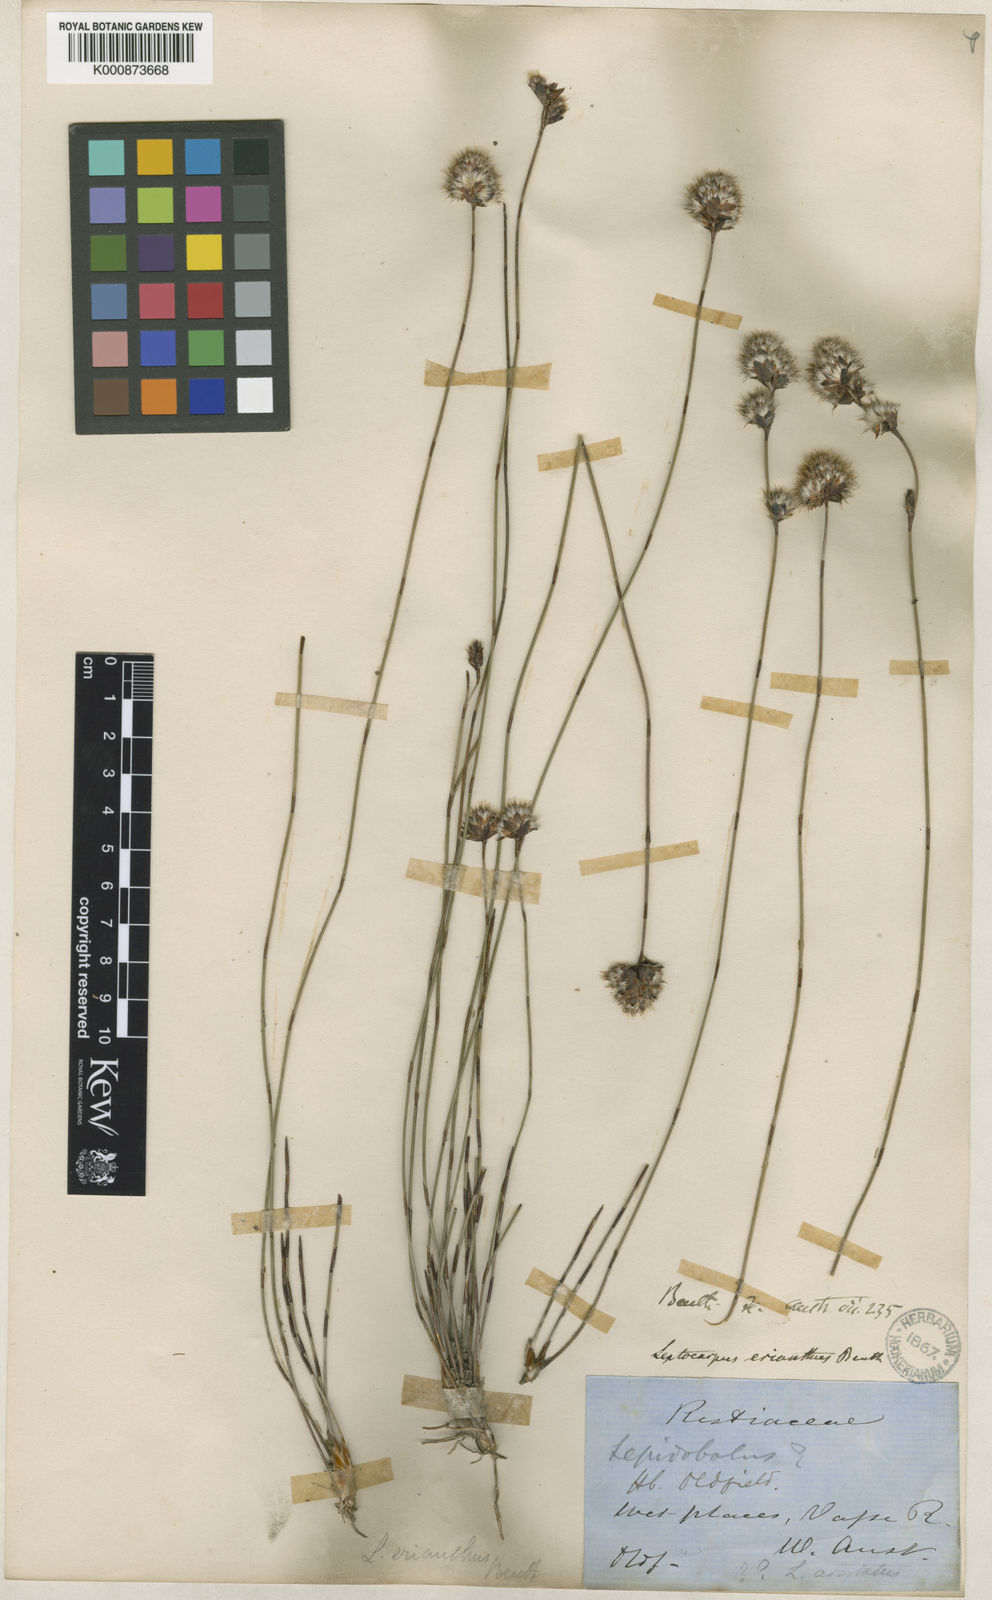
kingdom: Plantae
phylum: Tracheophyta
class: Liliopsida
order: Poales
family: Restionaceae
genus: Chaetanthus
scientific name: Chaetanthus aristatus
